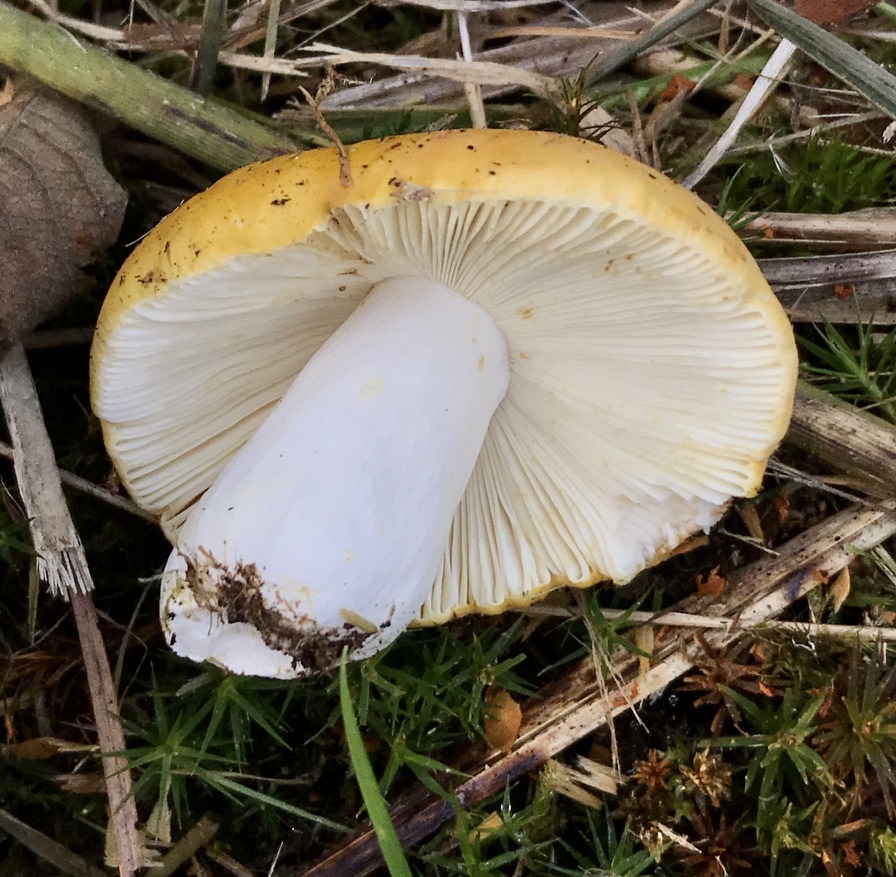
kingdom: Fungi
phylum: Basidiomycota
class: Agaricomycetes
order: Russulales
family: Russulaceae
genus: Russula
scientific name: Russula claroflava
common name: birke-skørhat
